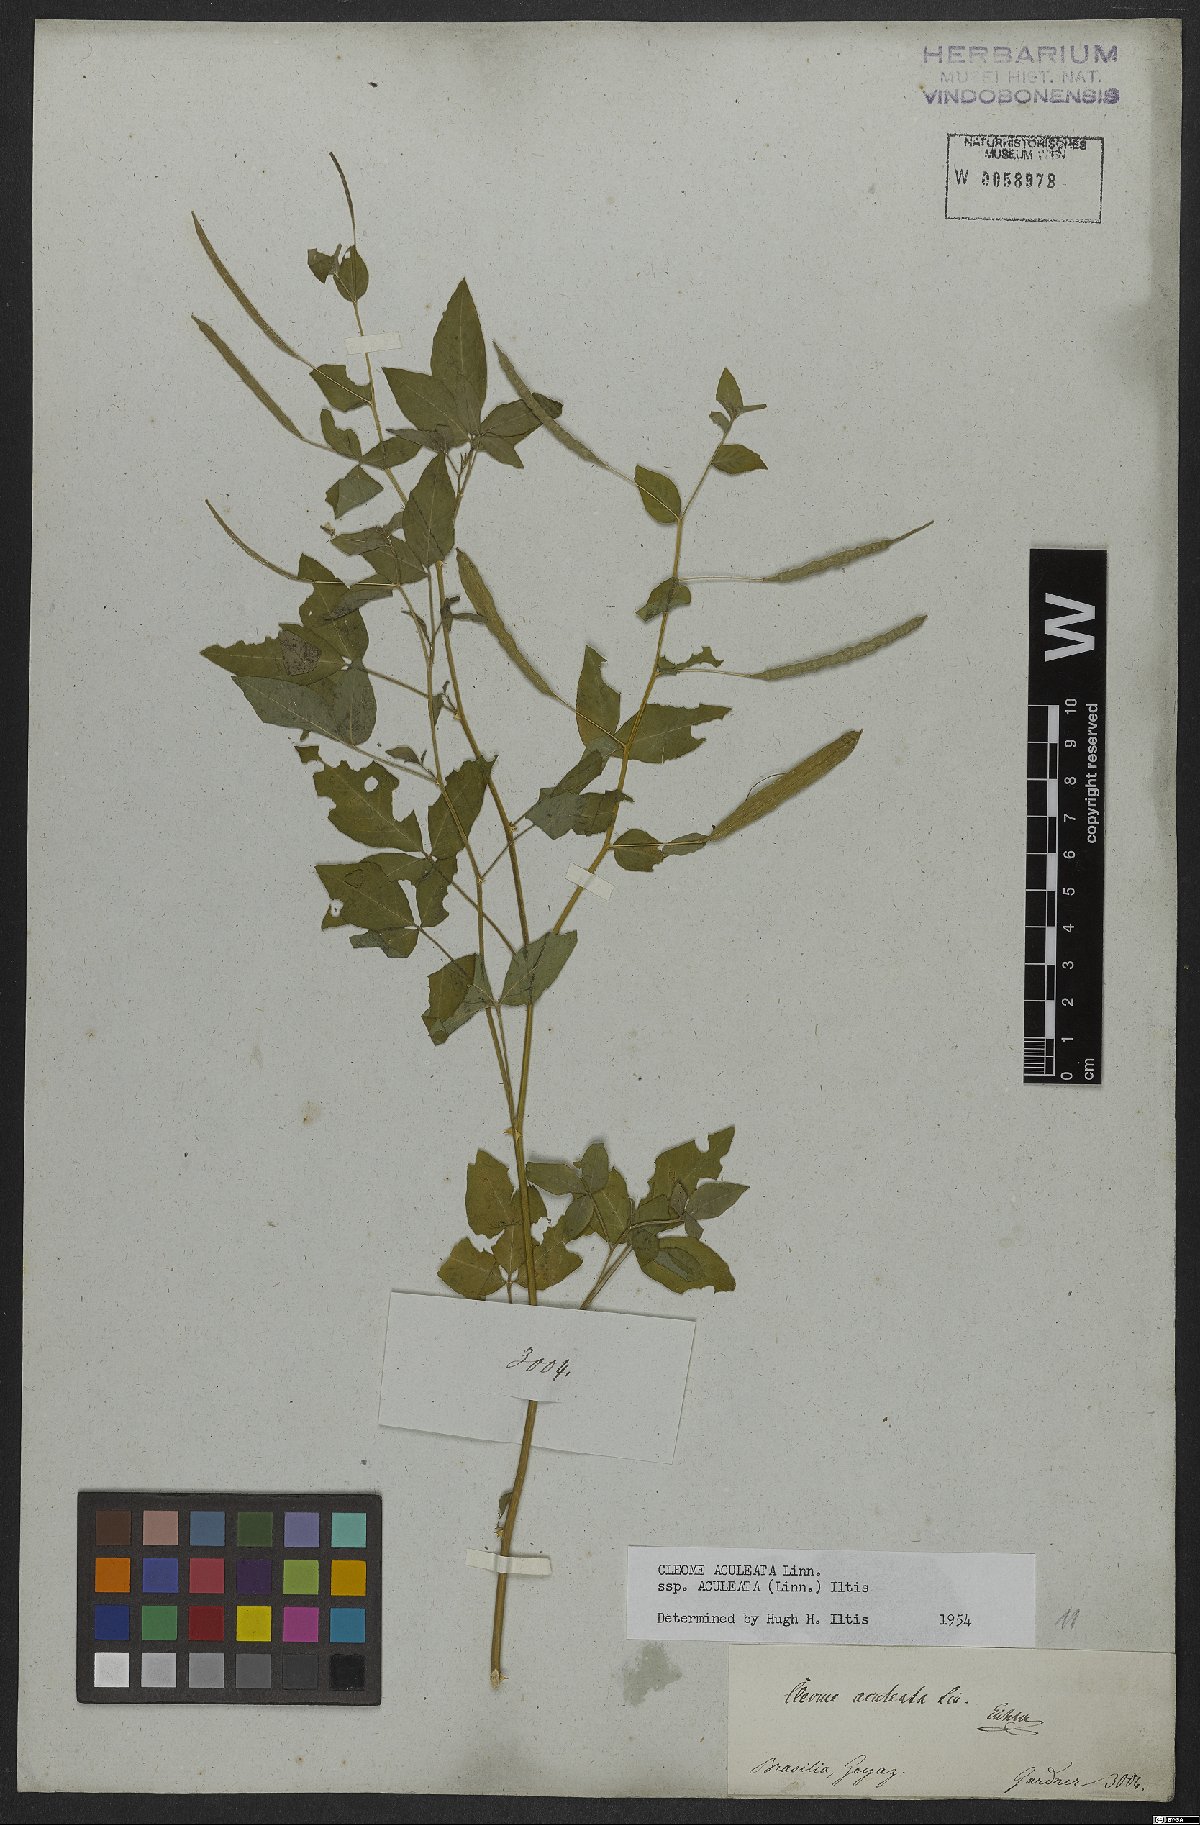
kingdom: Plantae
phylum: Tracheophyta
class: Magnoliopsida
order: Brassicales
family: Cleomaceae
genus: Tarenaya
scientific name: Tarenaya aculeata
